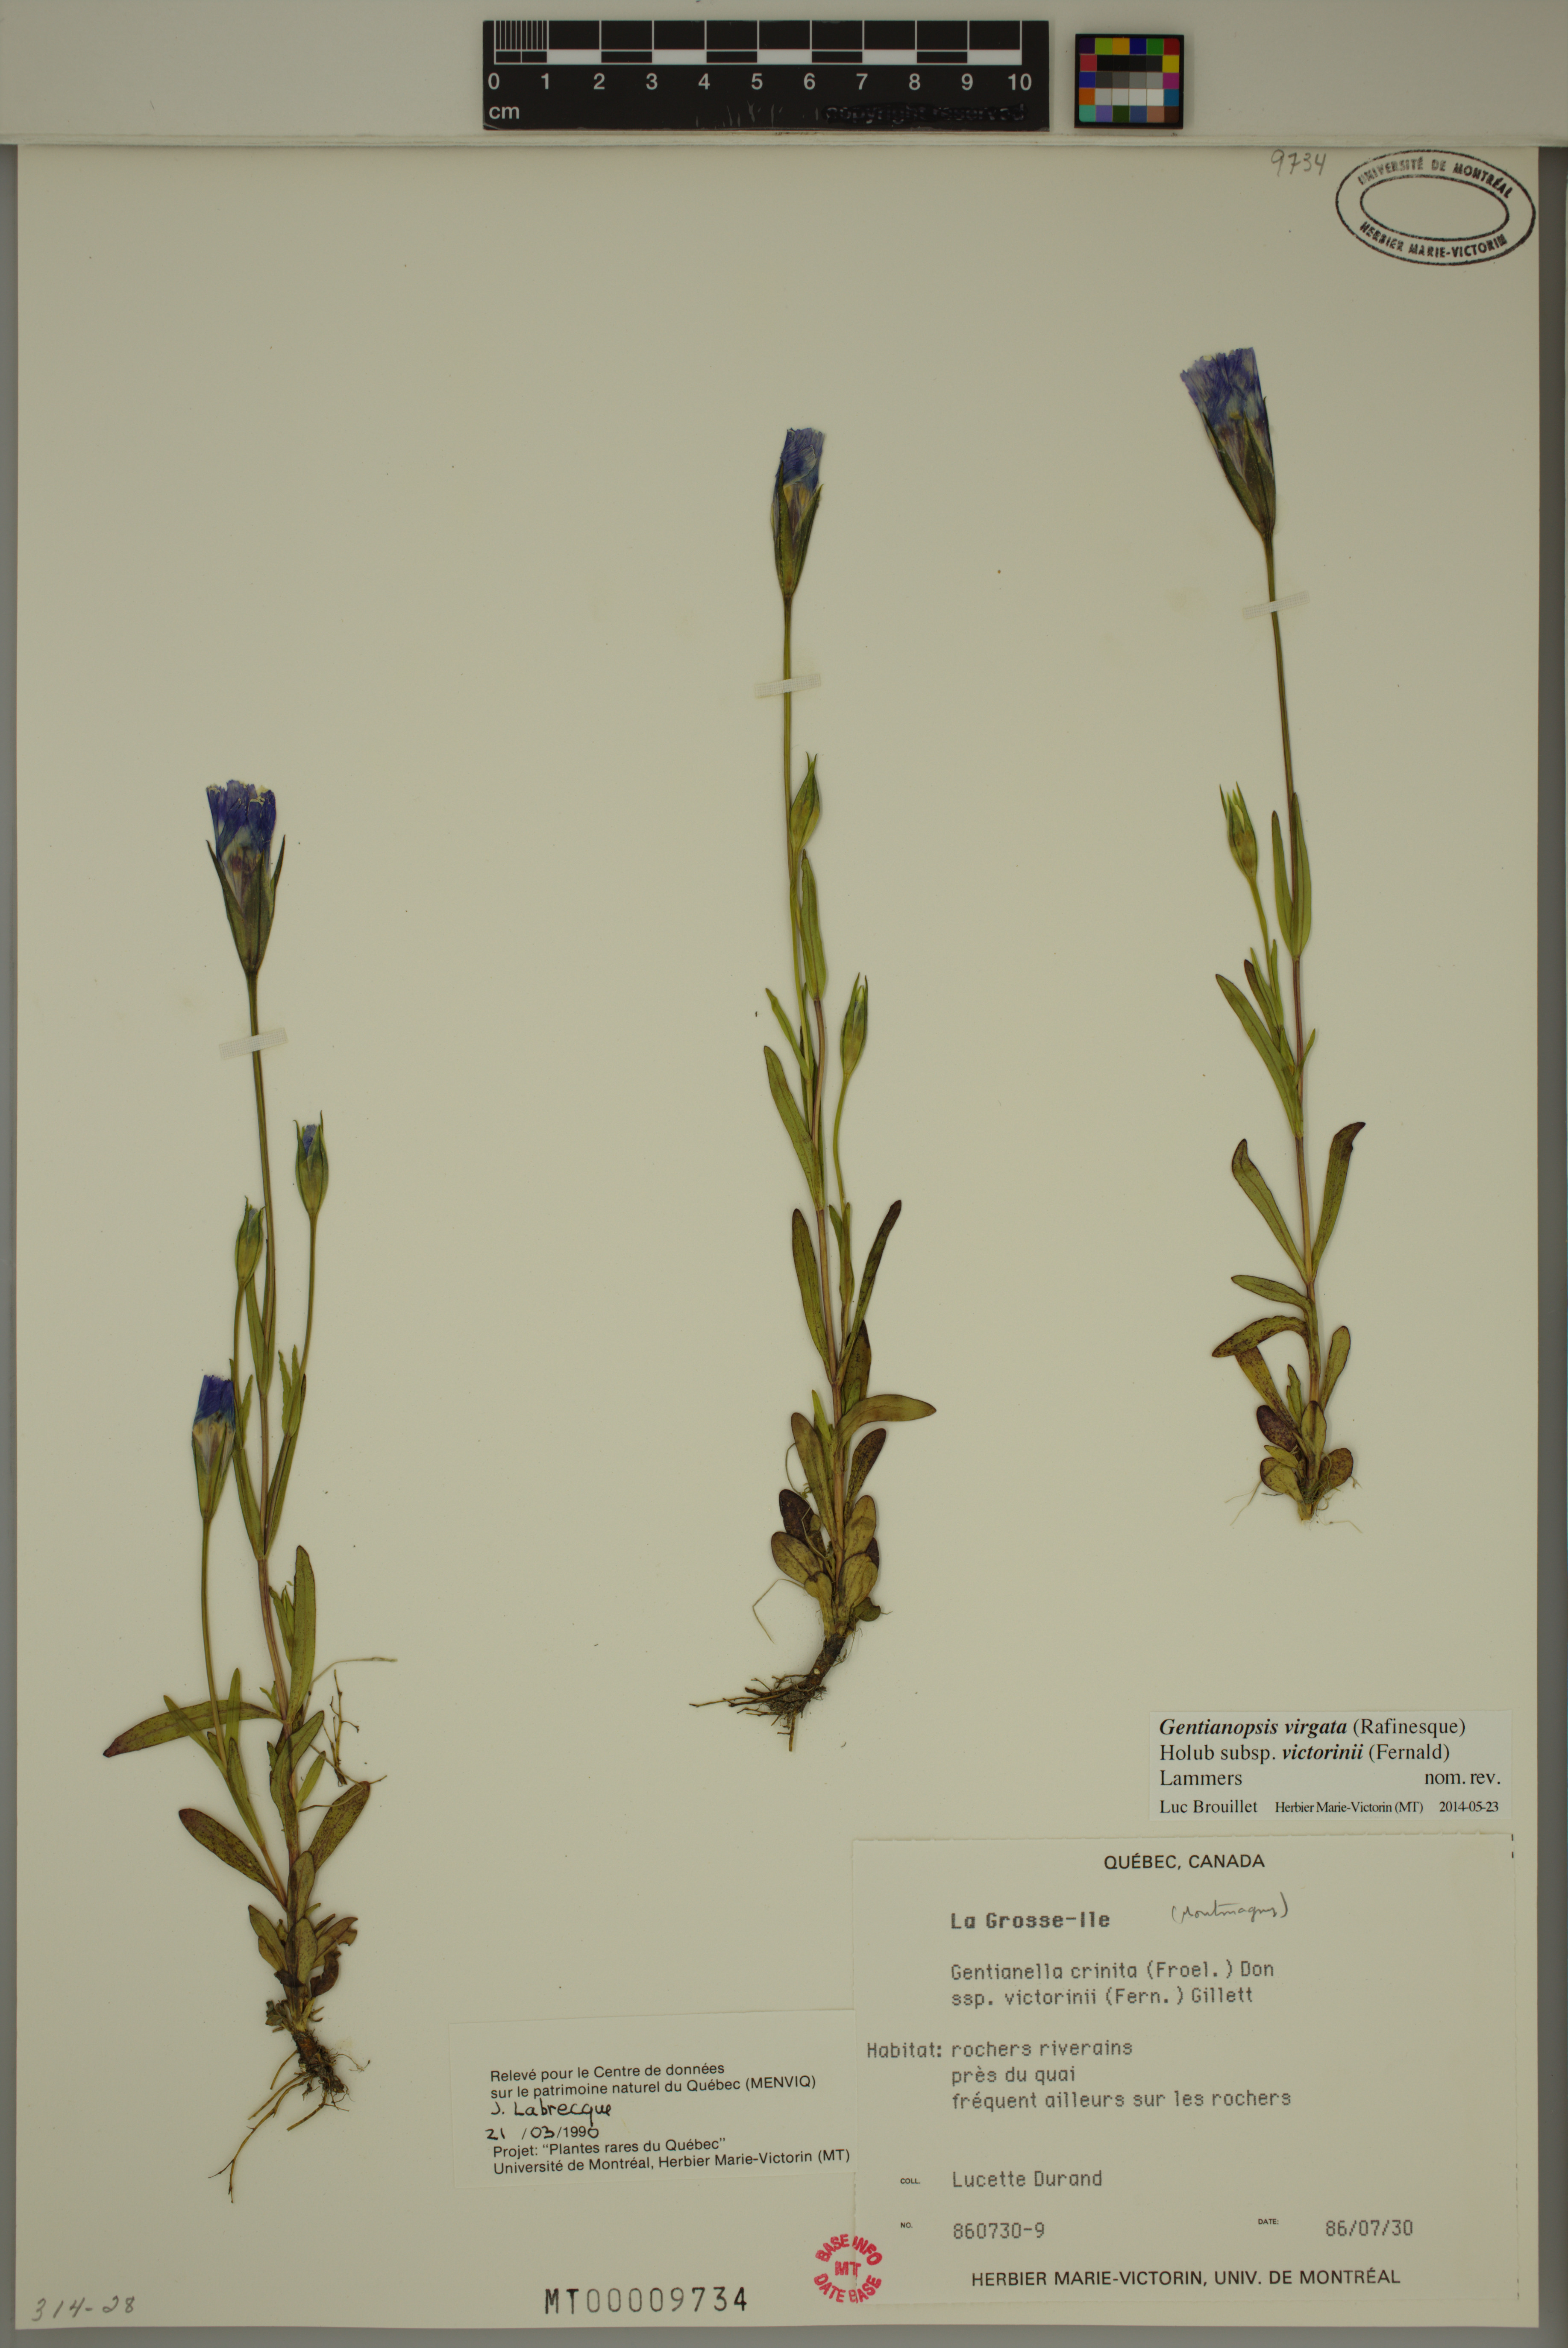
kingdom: Plantae
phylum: Tracheophyta
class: Magnoliopsida
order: Gentianales
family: Gentianaceae
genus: Gentianopsis
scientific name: Gentianopsis victorinii
